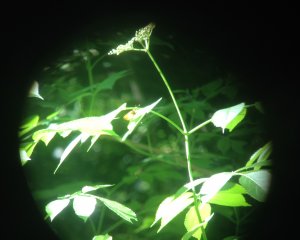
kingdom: Animalia
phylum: Arthropoda
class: Insecta
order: Lepidoptera
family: Hesperiidae
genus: Lon
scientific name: Lon zabulon
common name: Zabulon Skipper
